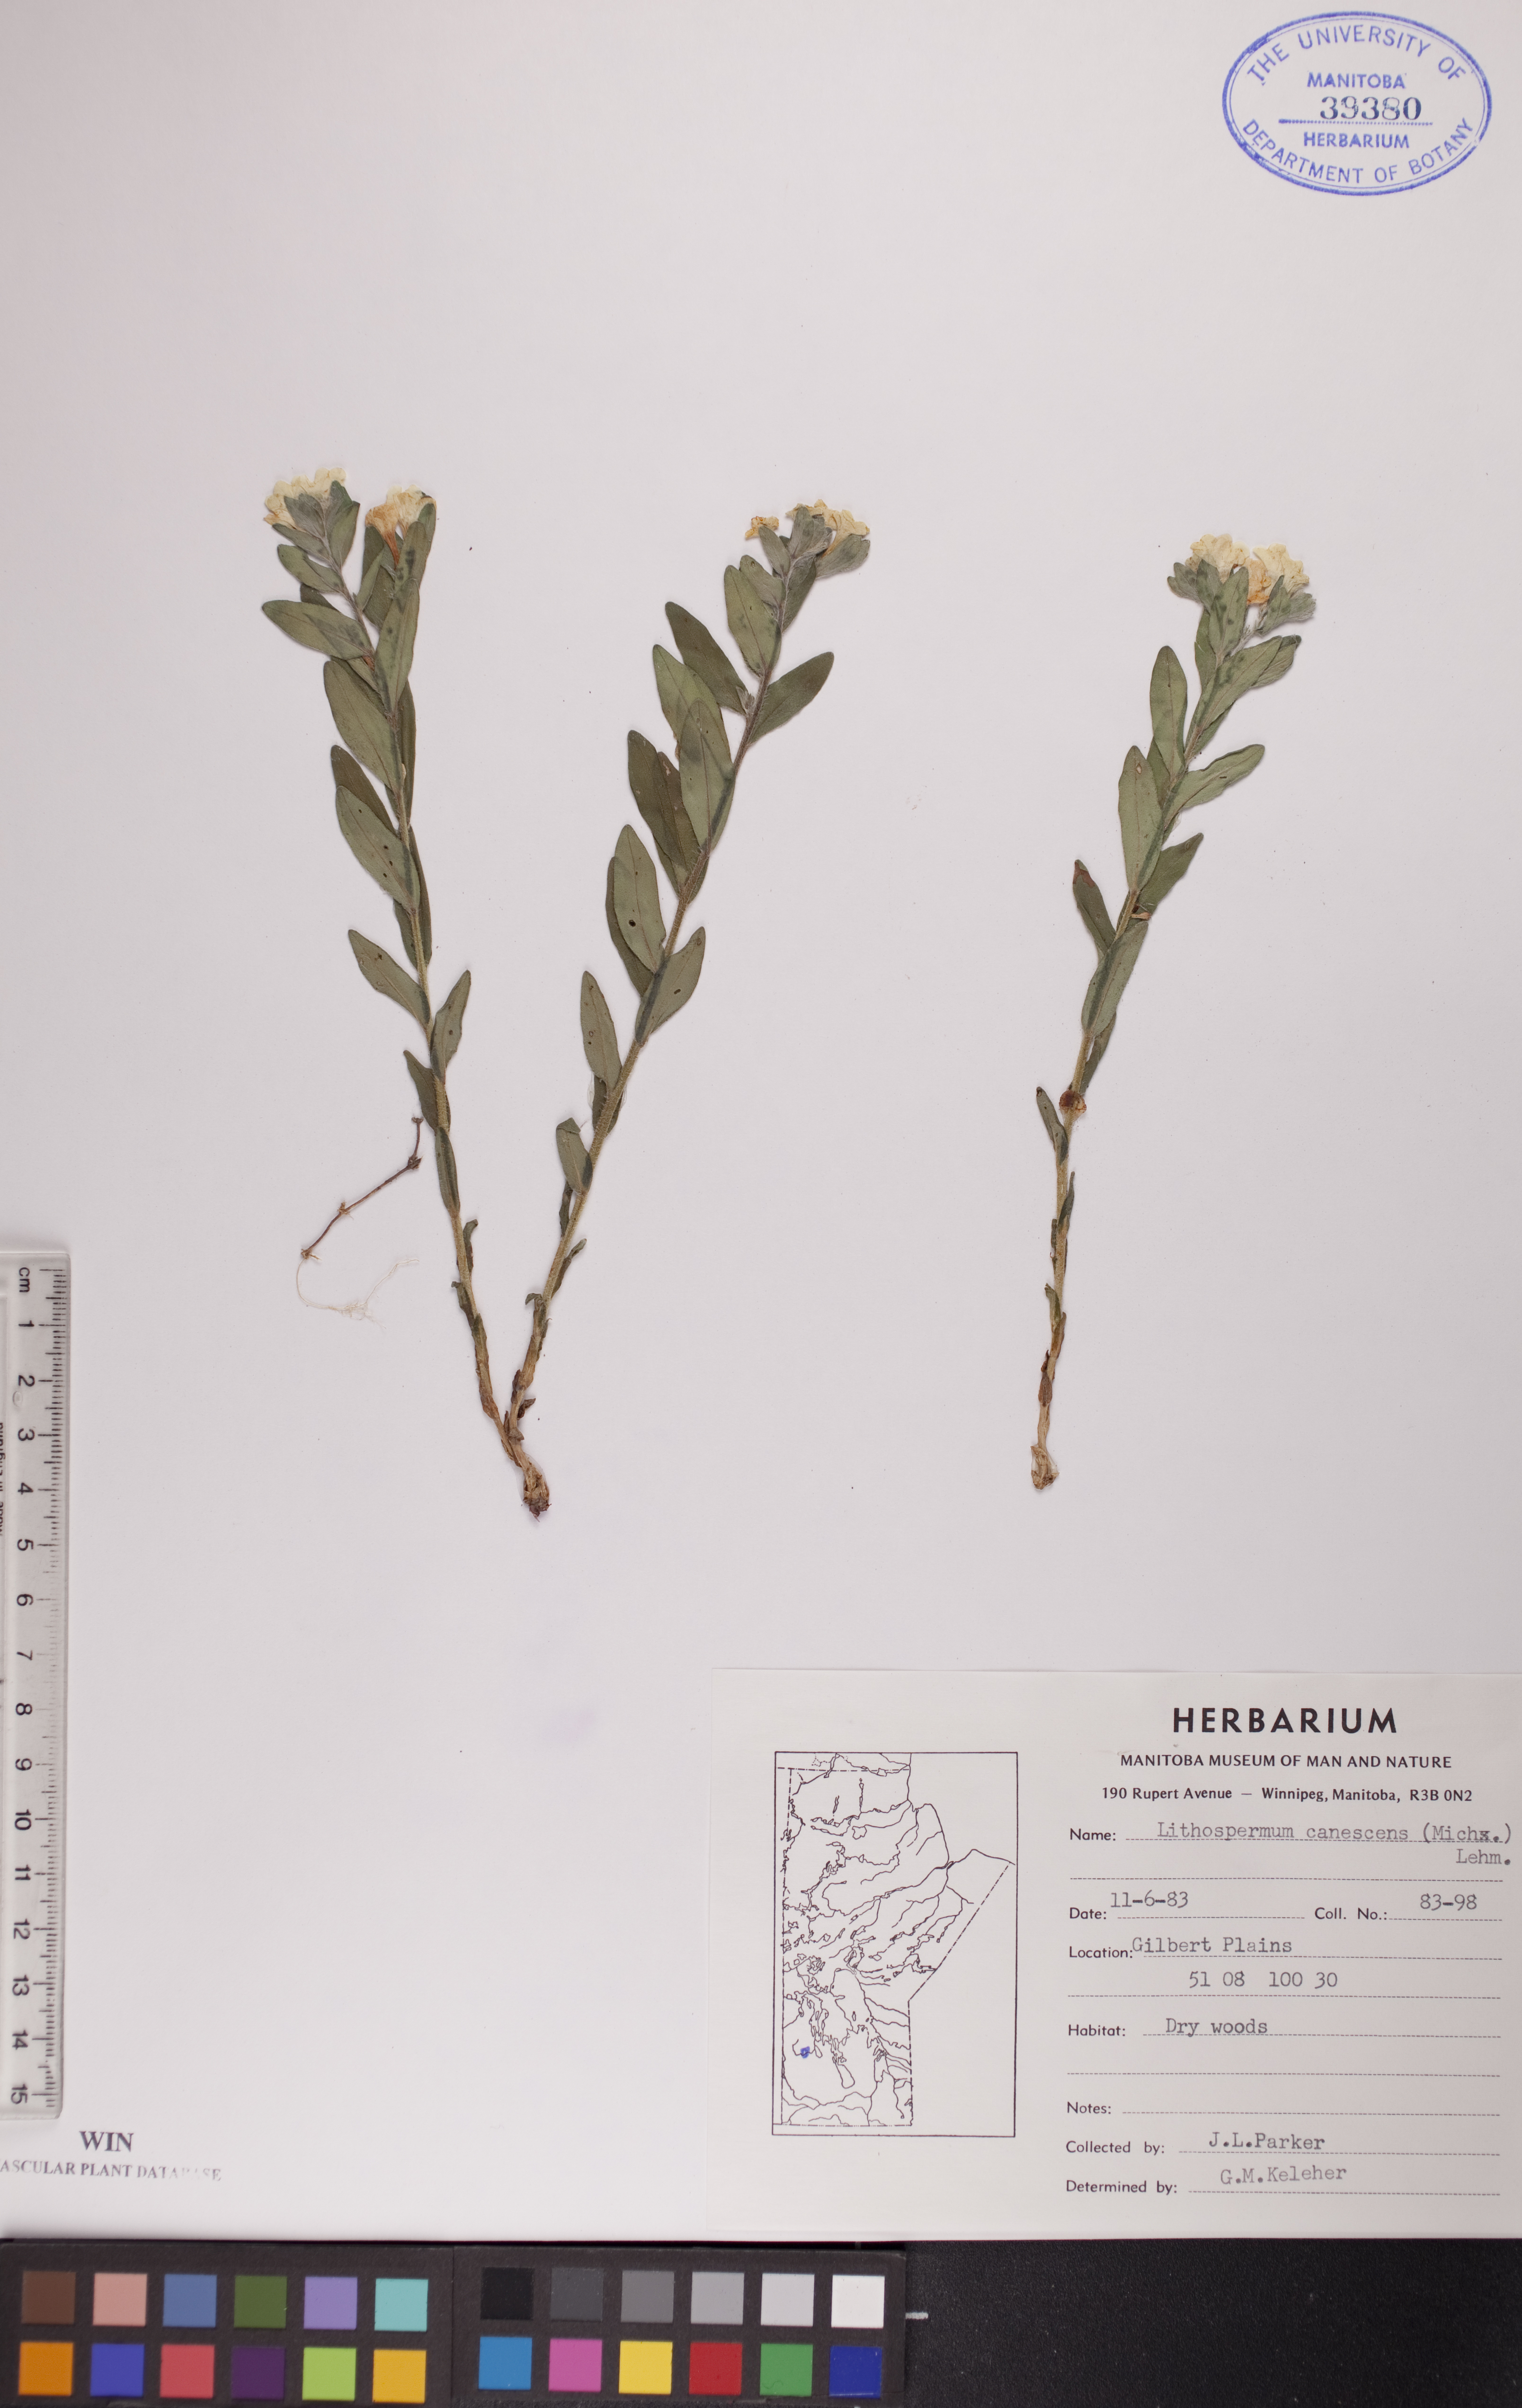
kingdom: Plantae
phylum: Tracheophyta
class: Magnoliopsida
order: Boraginales
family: Boraginaceae
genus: Lithospermum
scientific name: Lithospermum canescens
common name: Hoary puccoon
